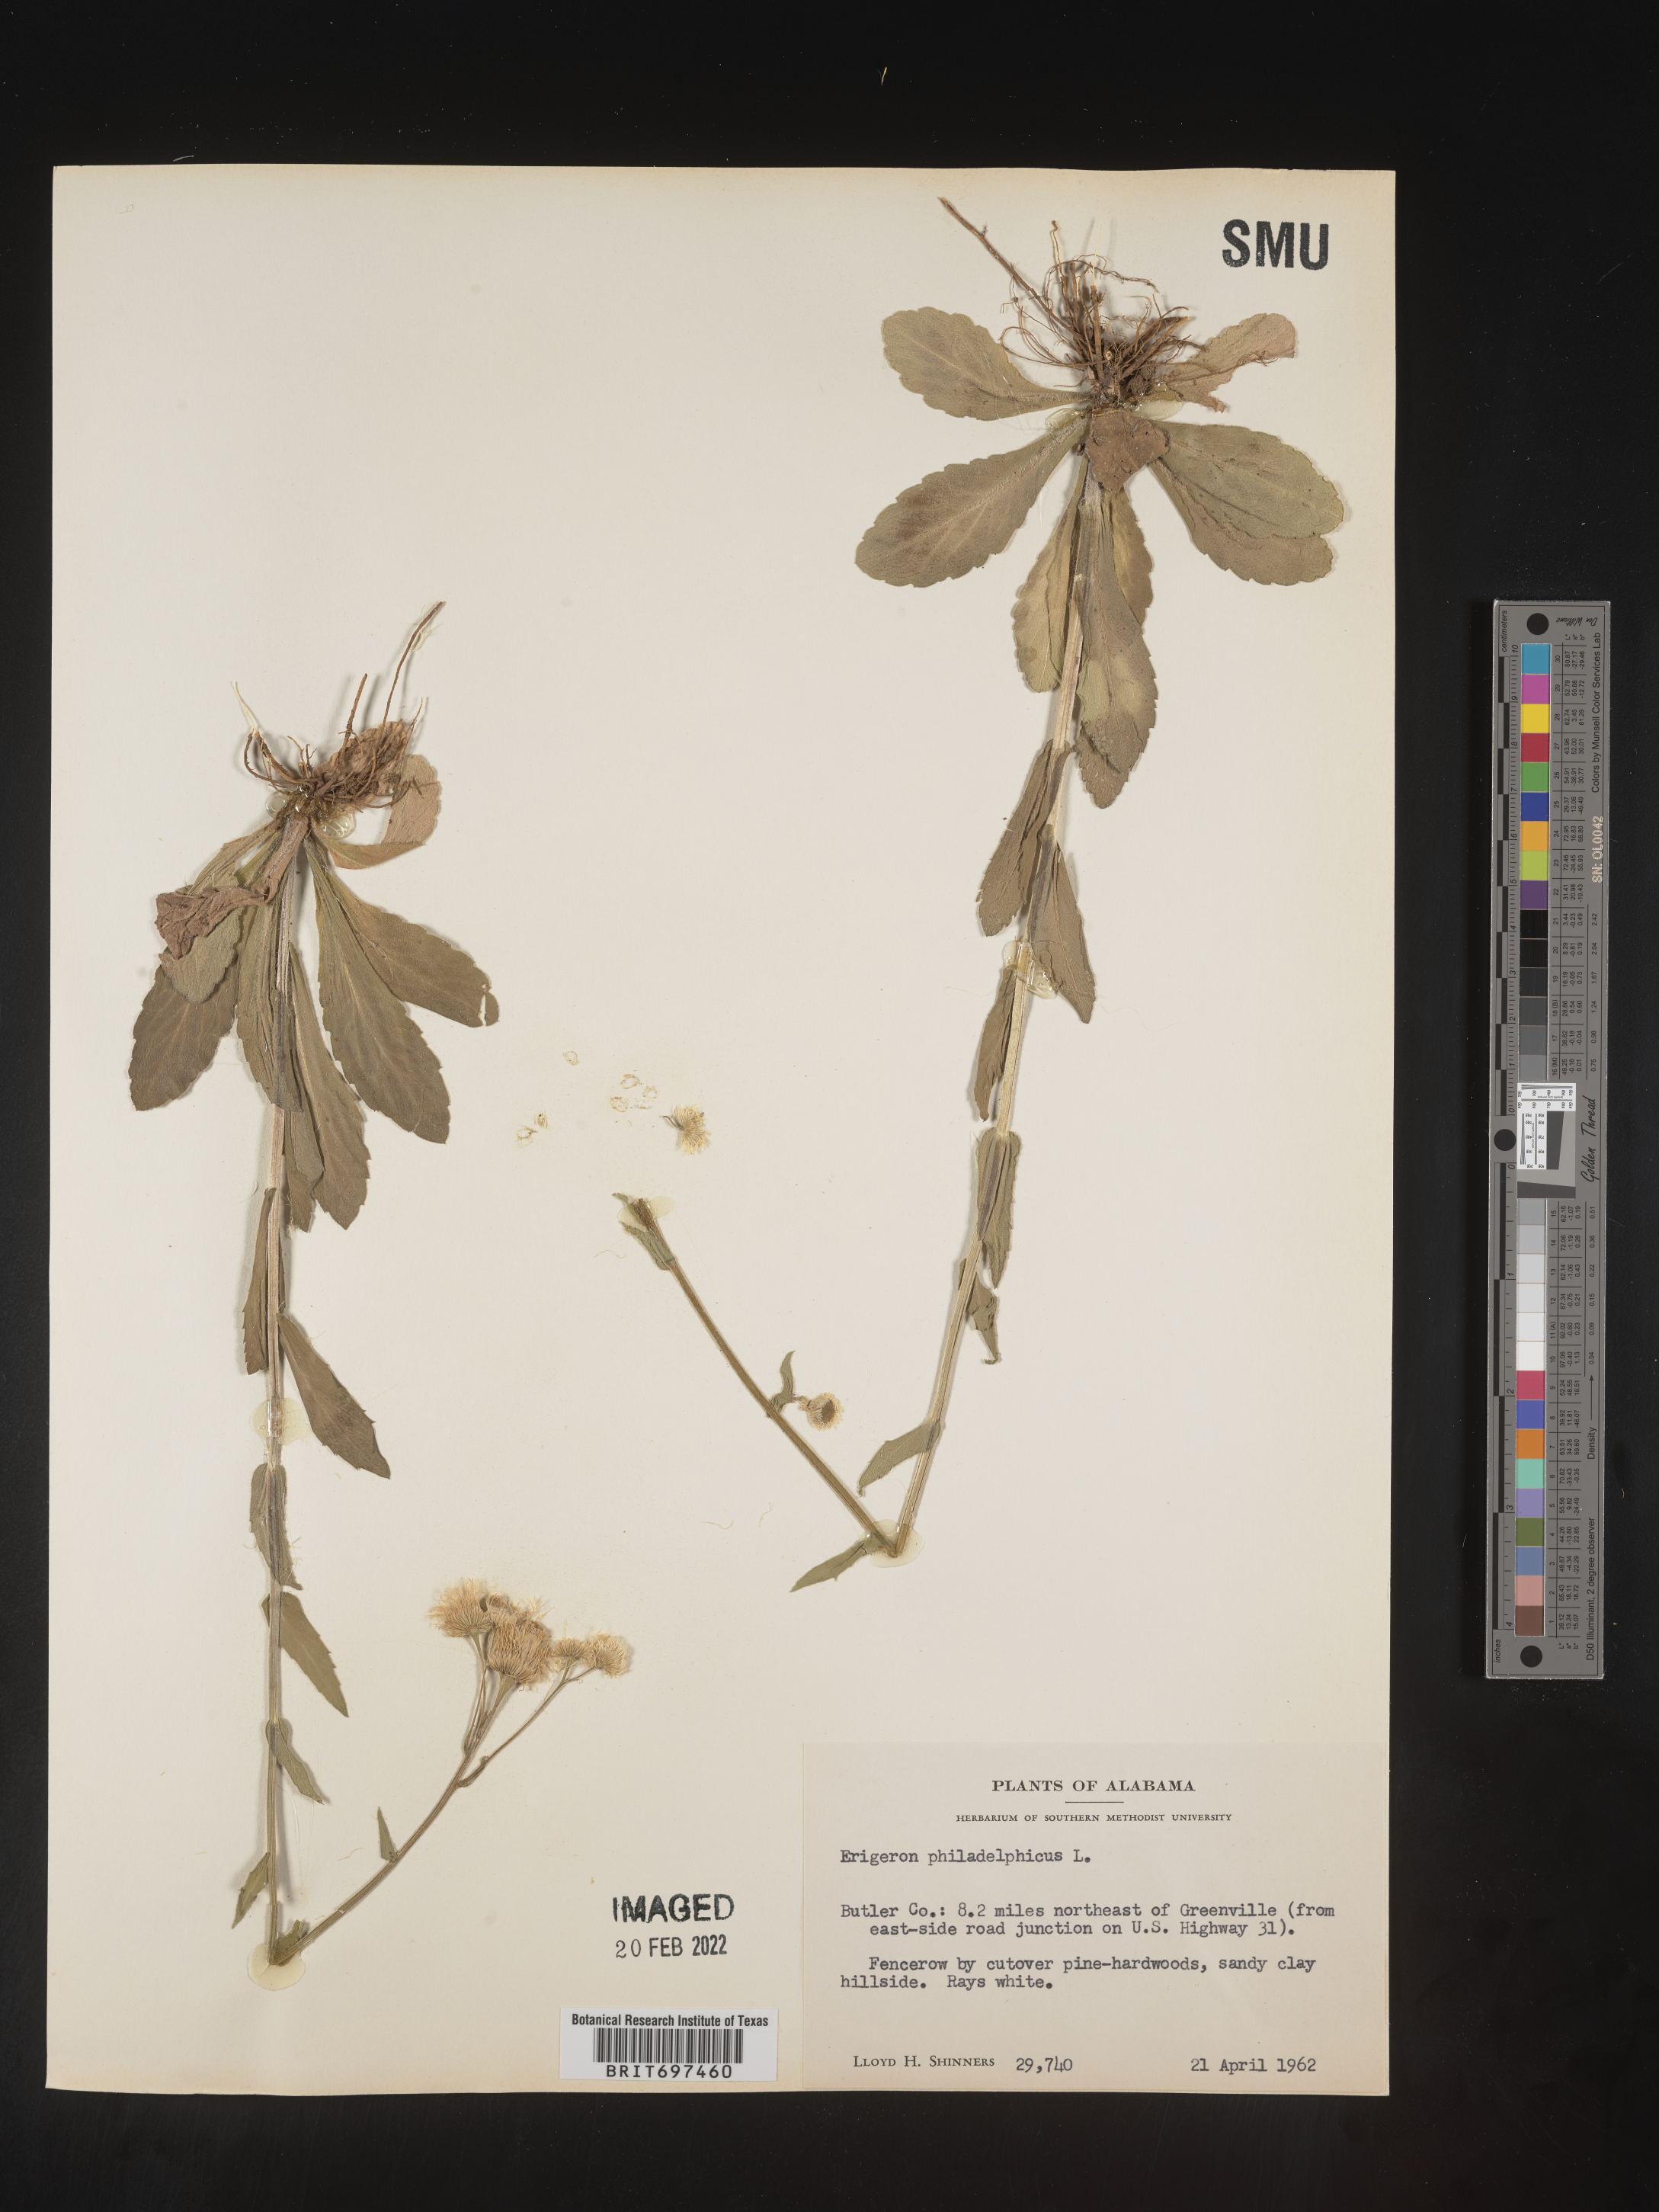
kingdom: Plantae
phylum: Tracheophyta
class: Magnoliopsida
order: Asterales
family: Asteraceae
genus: Erigeron
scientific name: Erigeron philadelphicus
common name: Robin's-plantain
